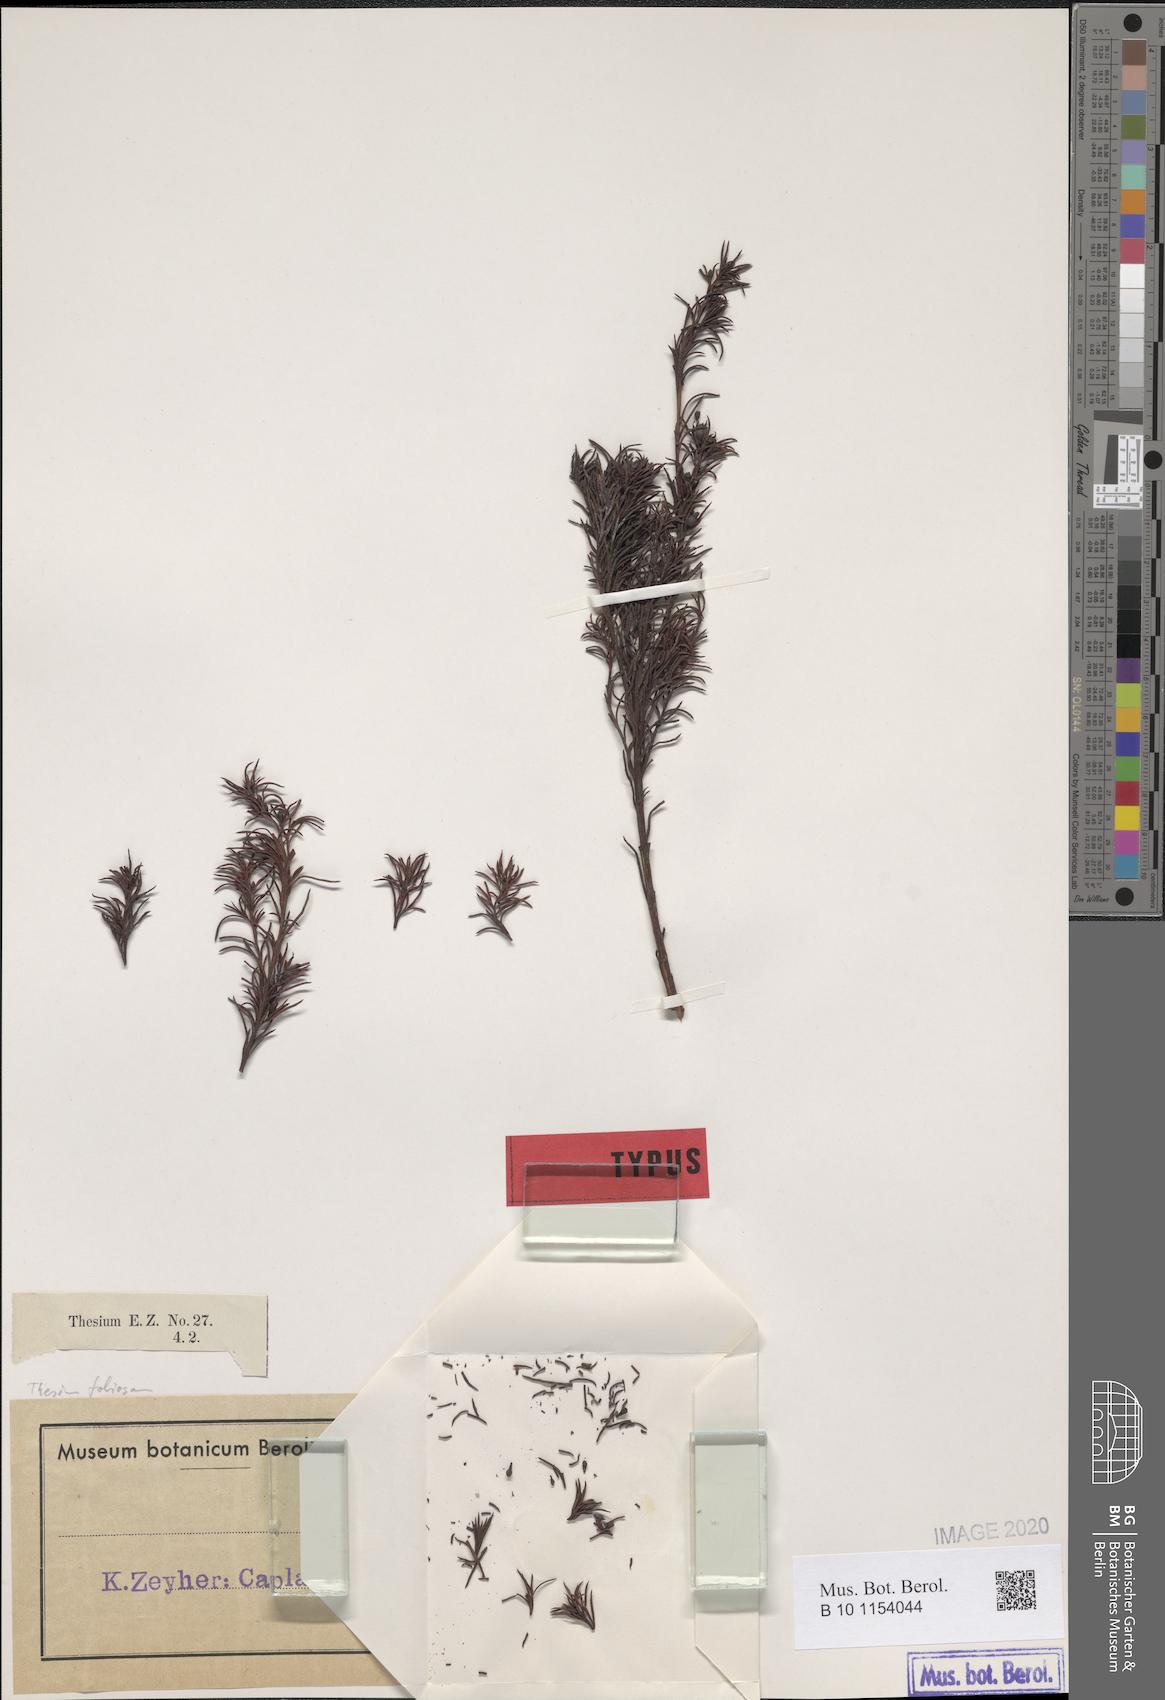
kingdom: Plantae
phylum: Tracheophyta
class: Magnoliopsida
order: Santalales
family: Thesiaceae
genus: Thesium
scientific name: Thesium foliosum
